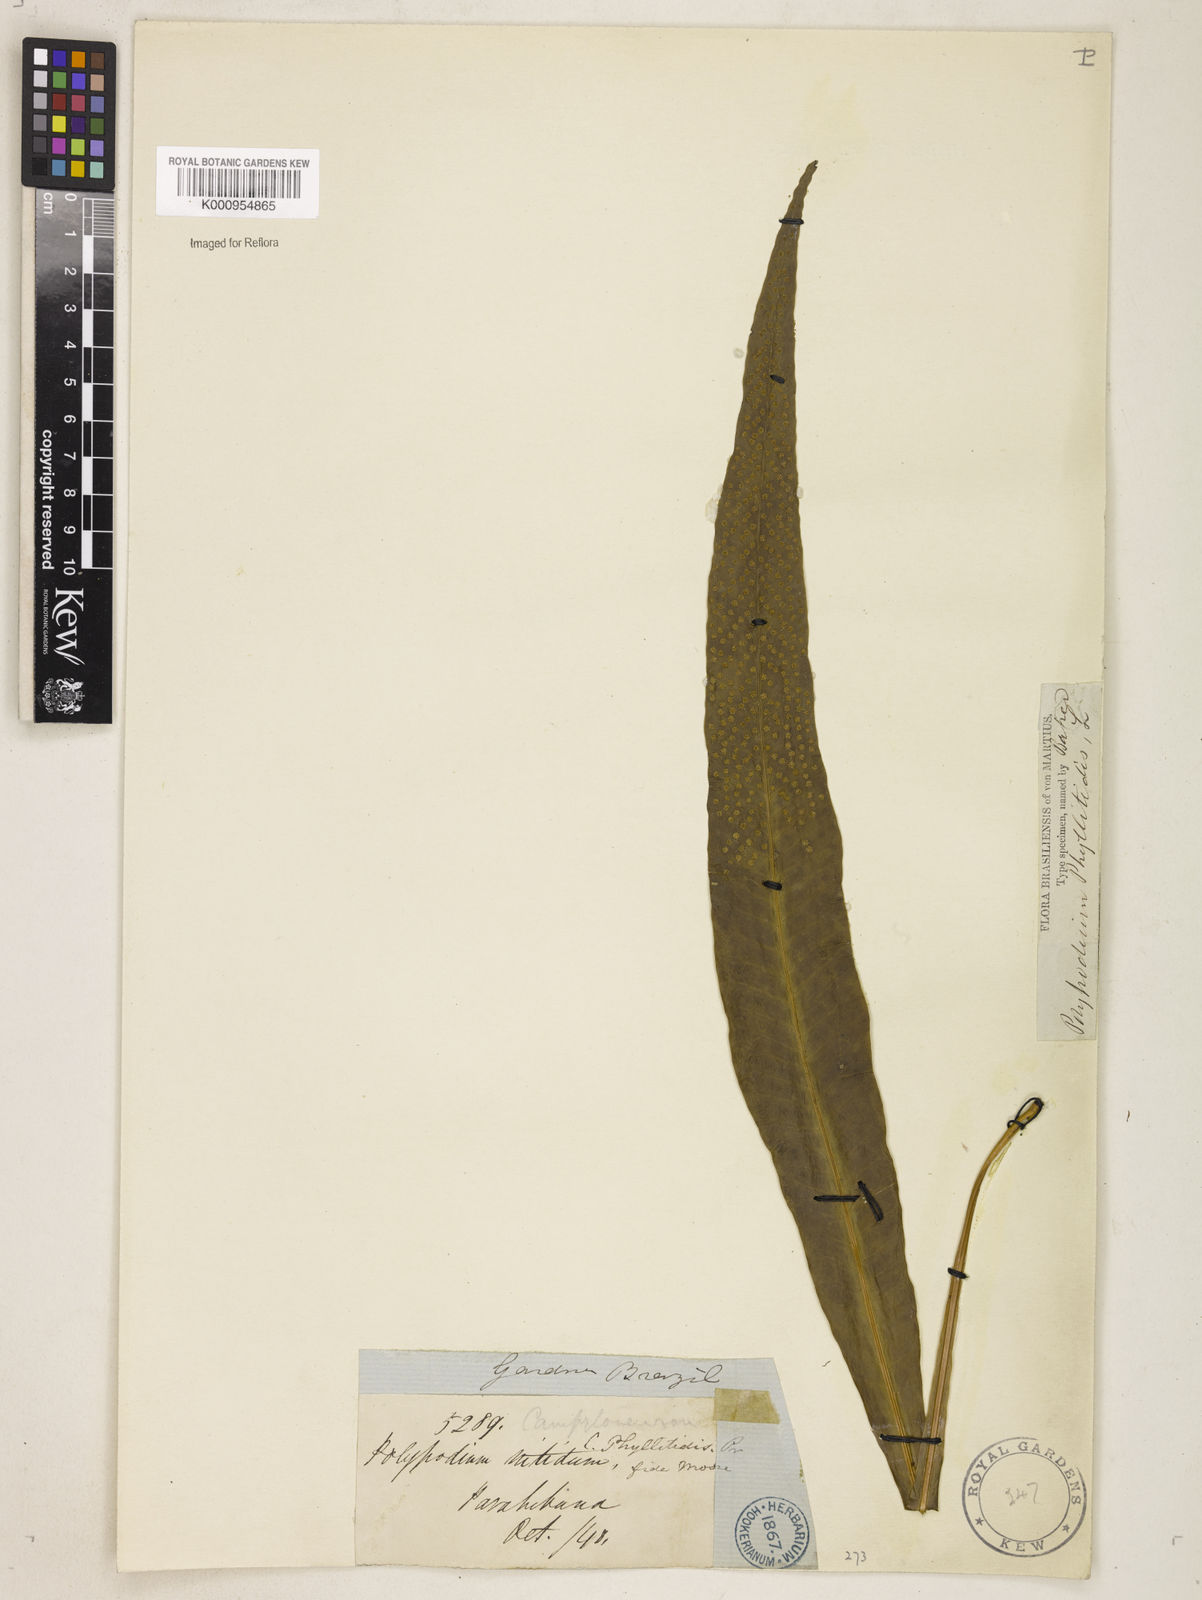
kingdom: Plantae
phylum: Tracheophyta
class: Polypodiopsida
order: Polypodiales
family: Polypodiaceae
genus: Campyloneurum
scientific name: Campyloneurum phyllitidis
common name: Cow-tongue fern
